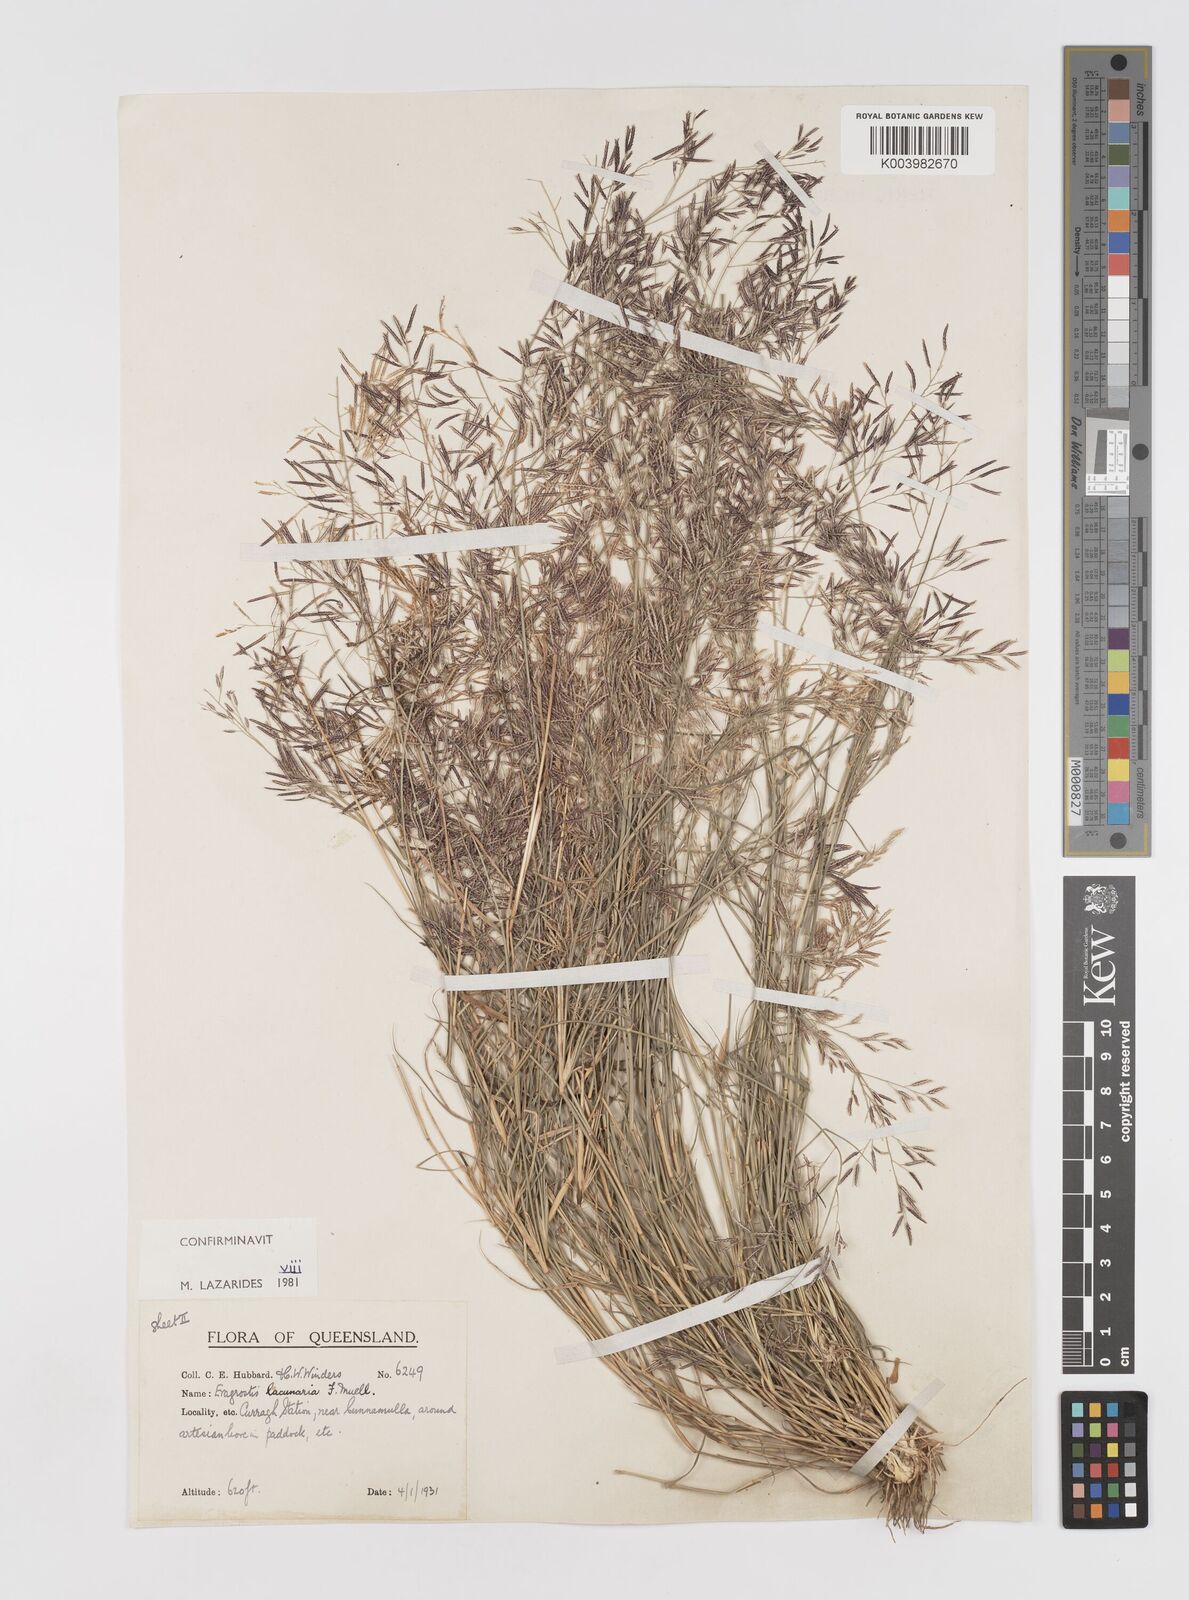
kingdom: Plantae
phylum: Tracheophyta
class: Liliopsida
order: Poales
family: Poaceae
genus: Eragrostis
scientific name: Eragrostis lacunaria
